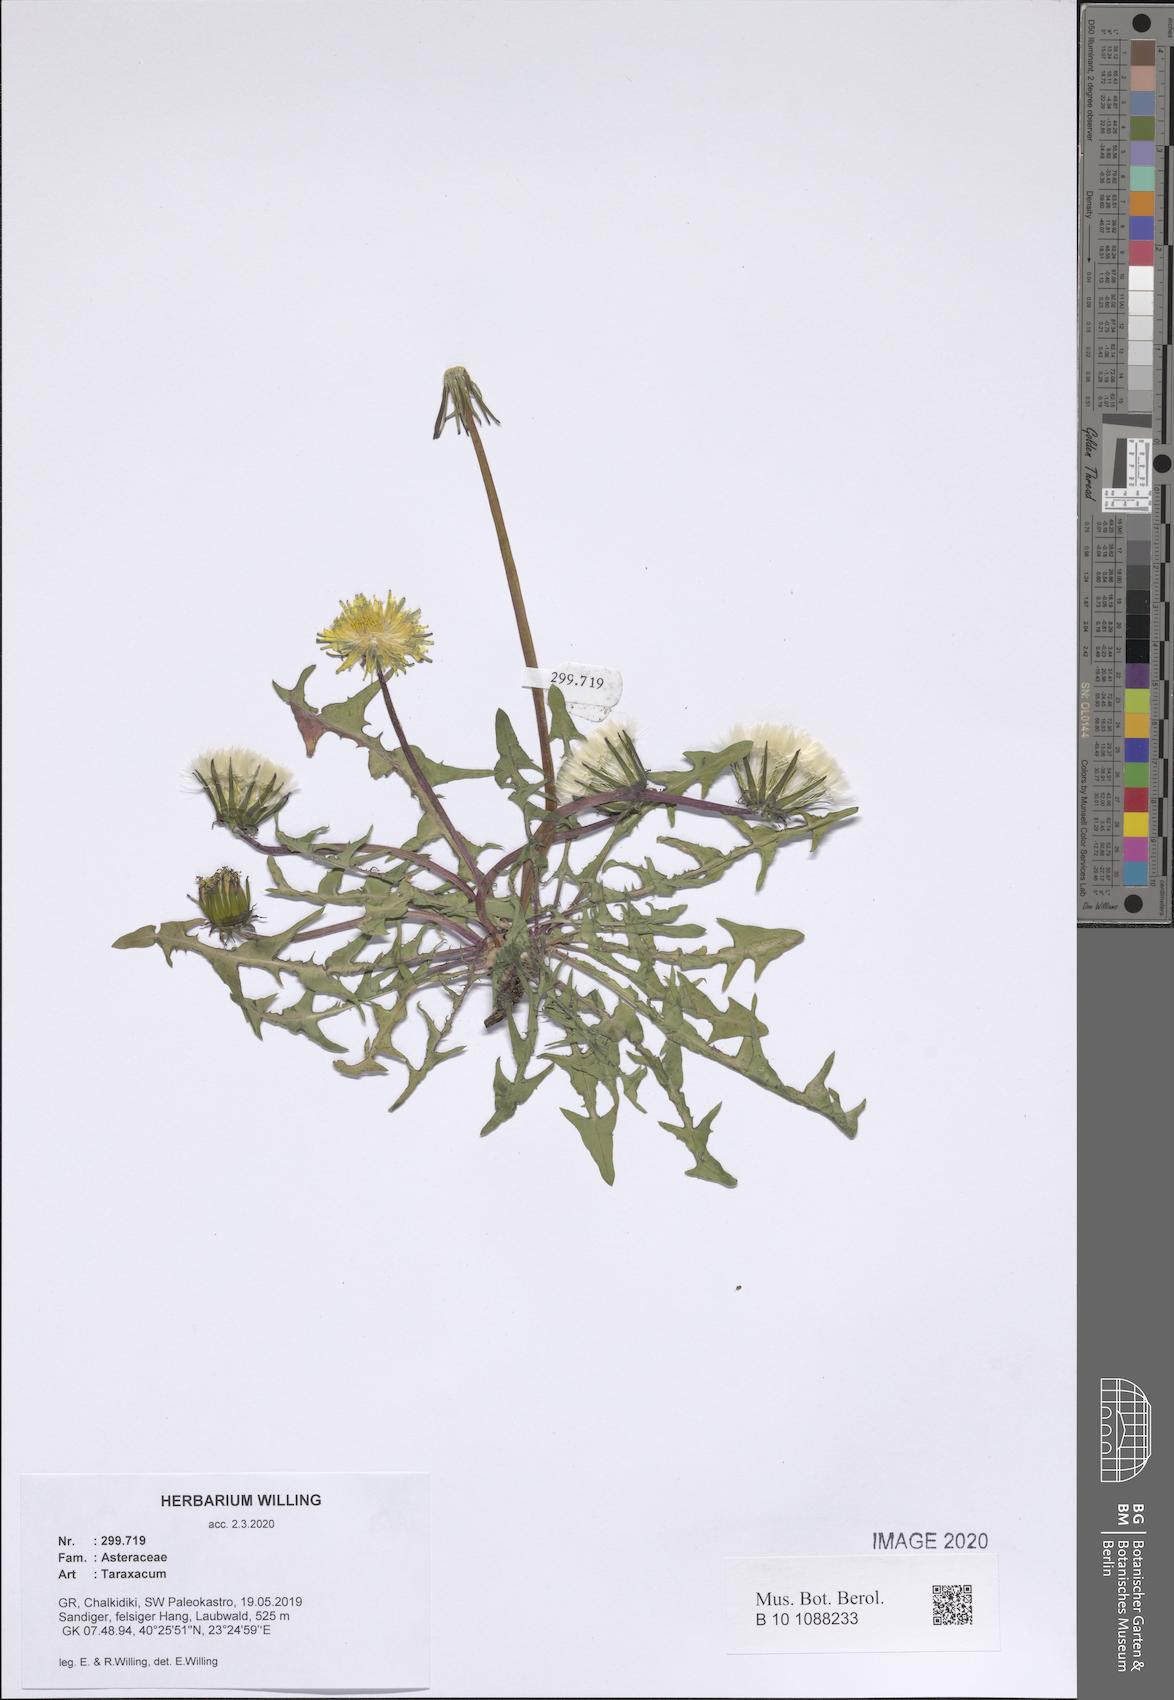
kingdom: Plantae
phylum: Tracheophyta
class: Magnoliopsida
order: Asterales
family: Asteraceae
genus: Taraxacum
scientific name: Taraxacum
